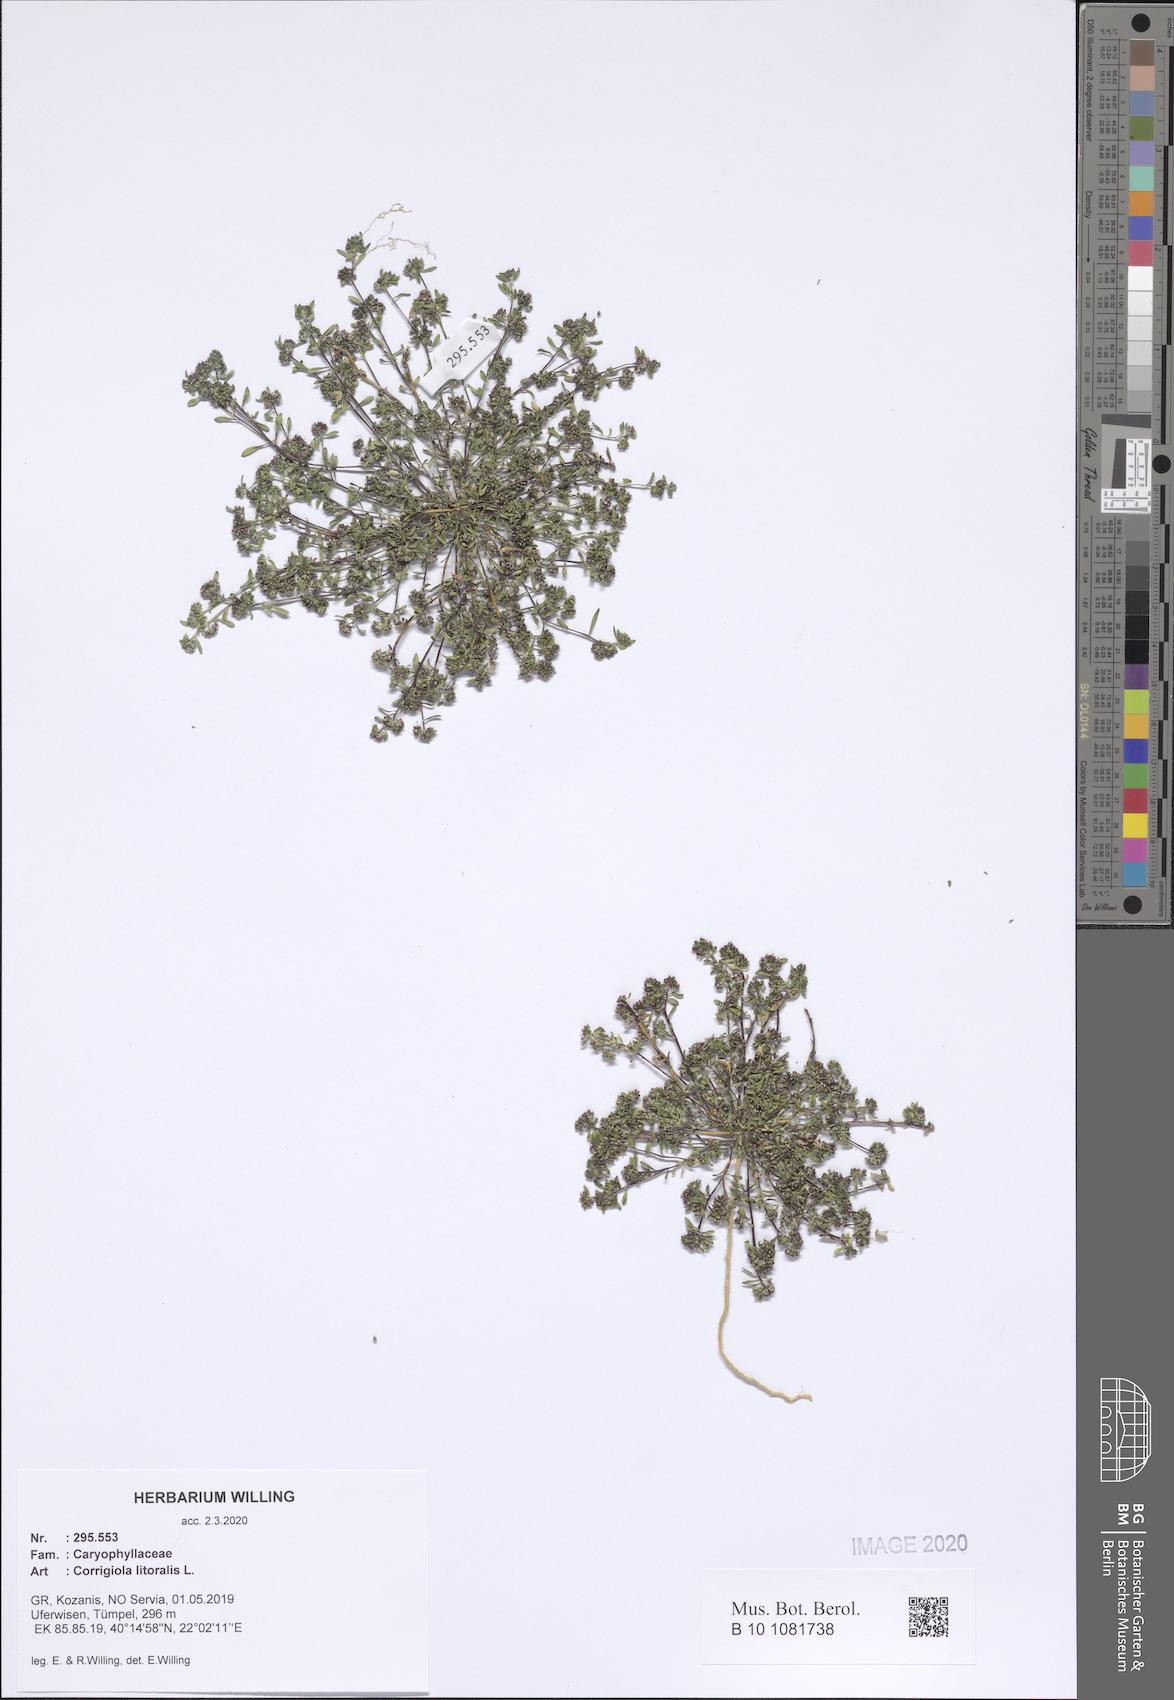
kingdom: Plantae
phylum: Tracheophyta
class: Magnoliopsida
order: Caryophyllales
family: Caryophyllaceae
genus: Corrigiola
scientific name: Corrigiola litoralis
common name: Strapwort
